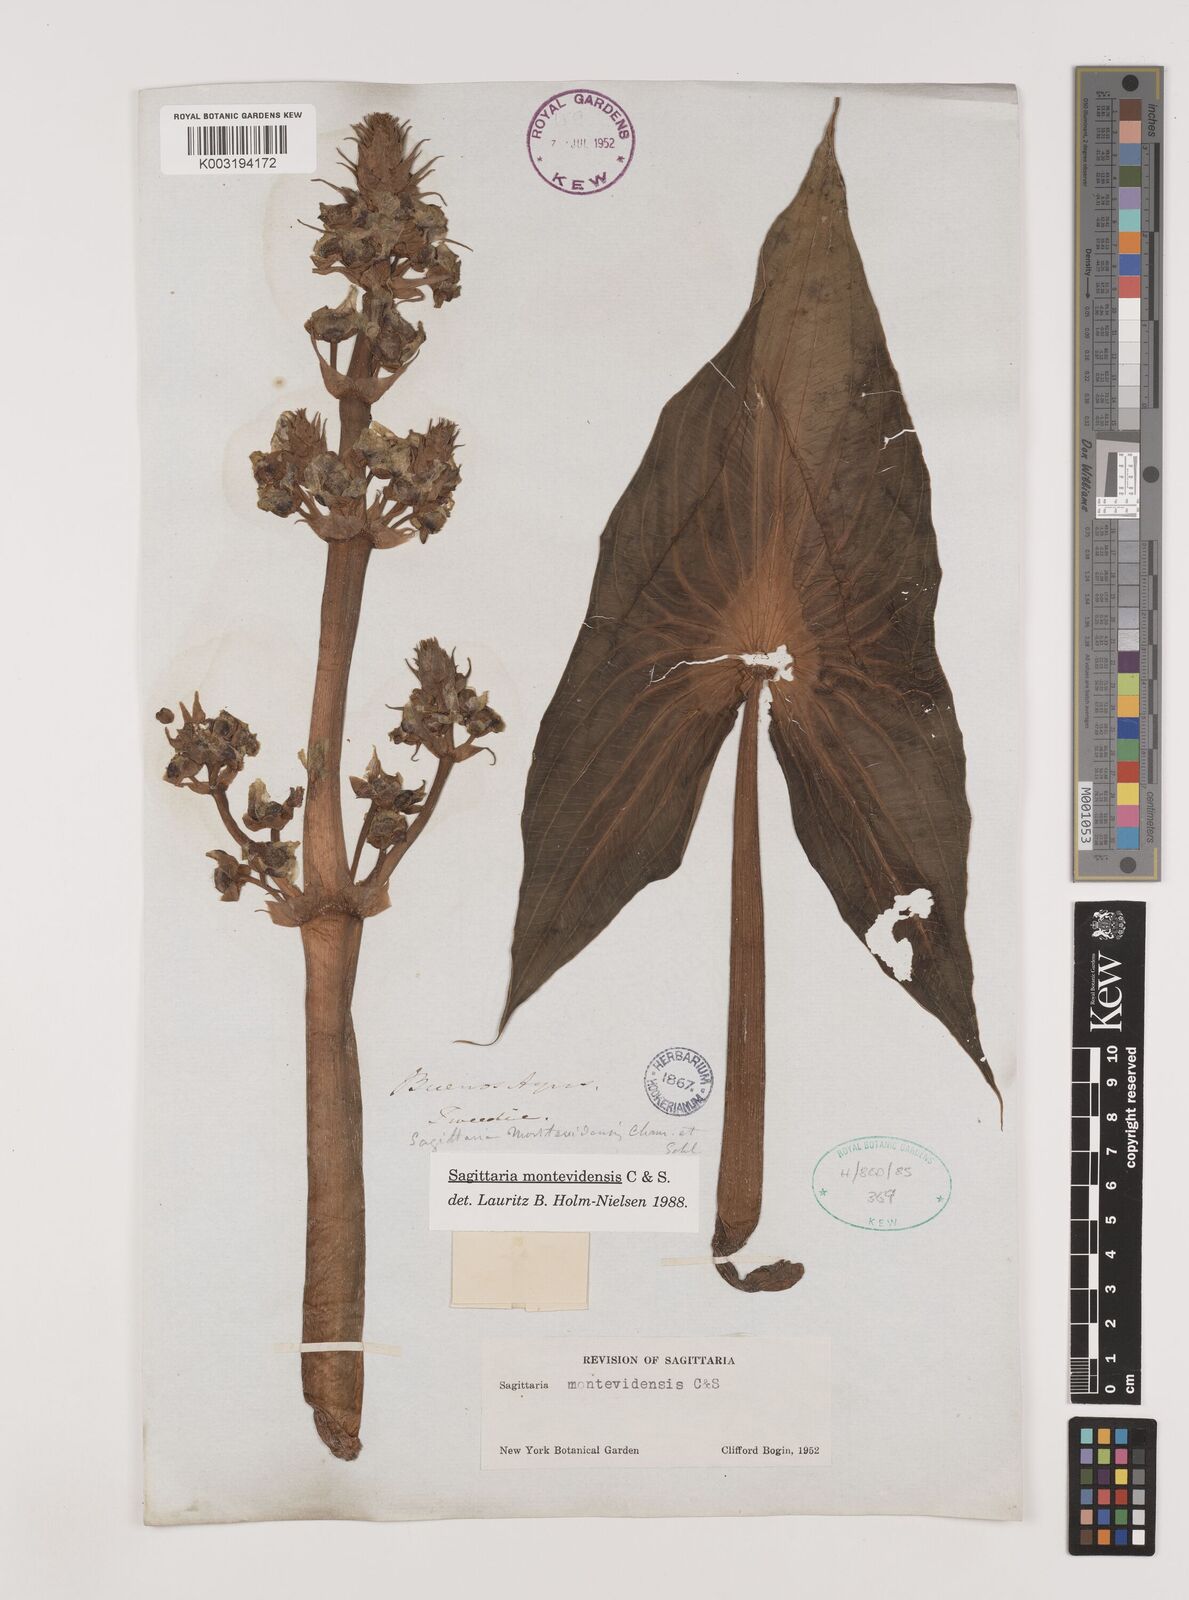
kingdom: Plantae
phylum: Tracheophyta
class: Liliopsida
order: Alismatales
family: Alismataceae
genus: Sagittaria
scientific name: Sagittaria montevidensis
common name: Giant arrowhead
